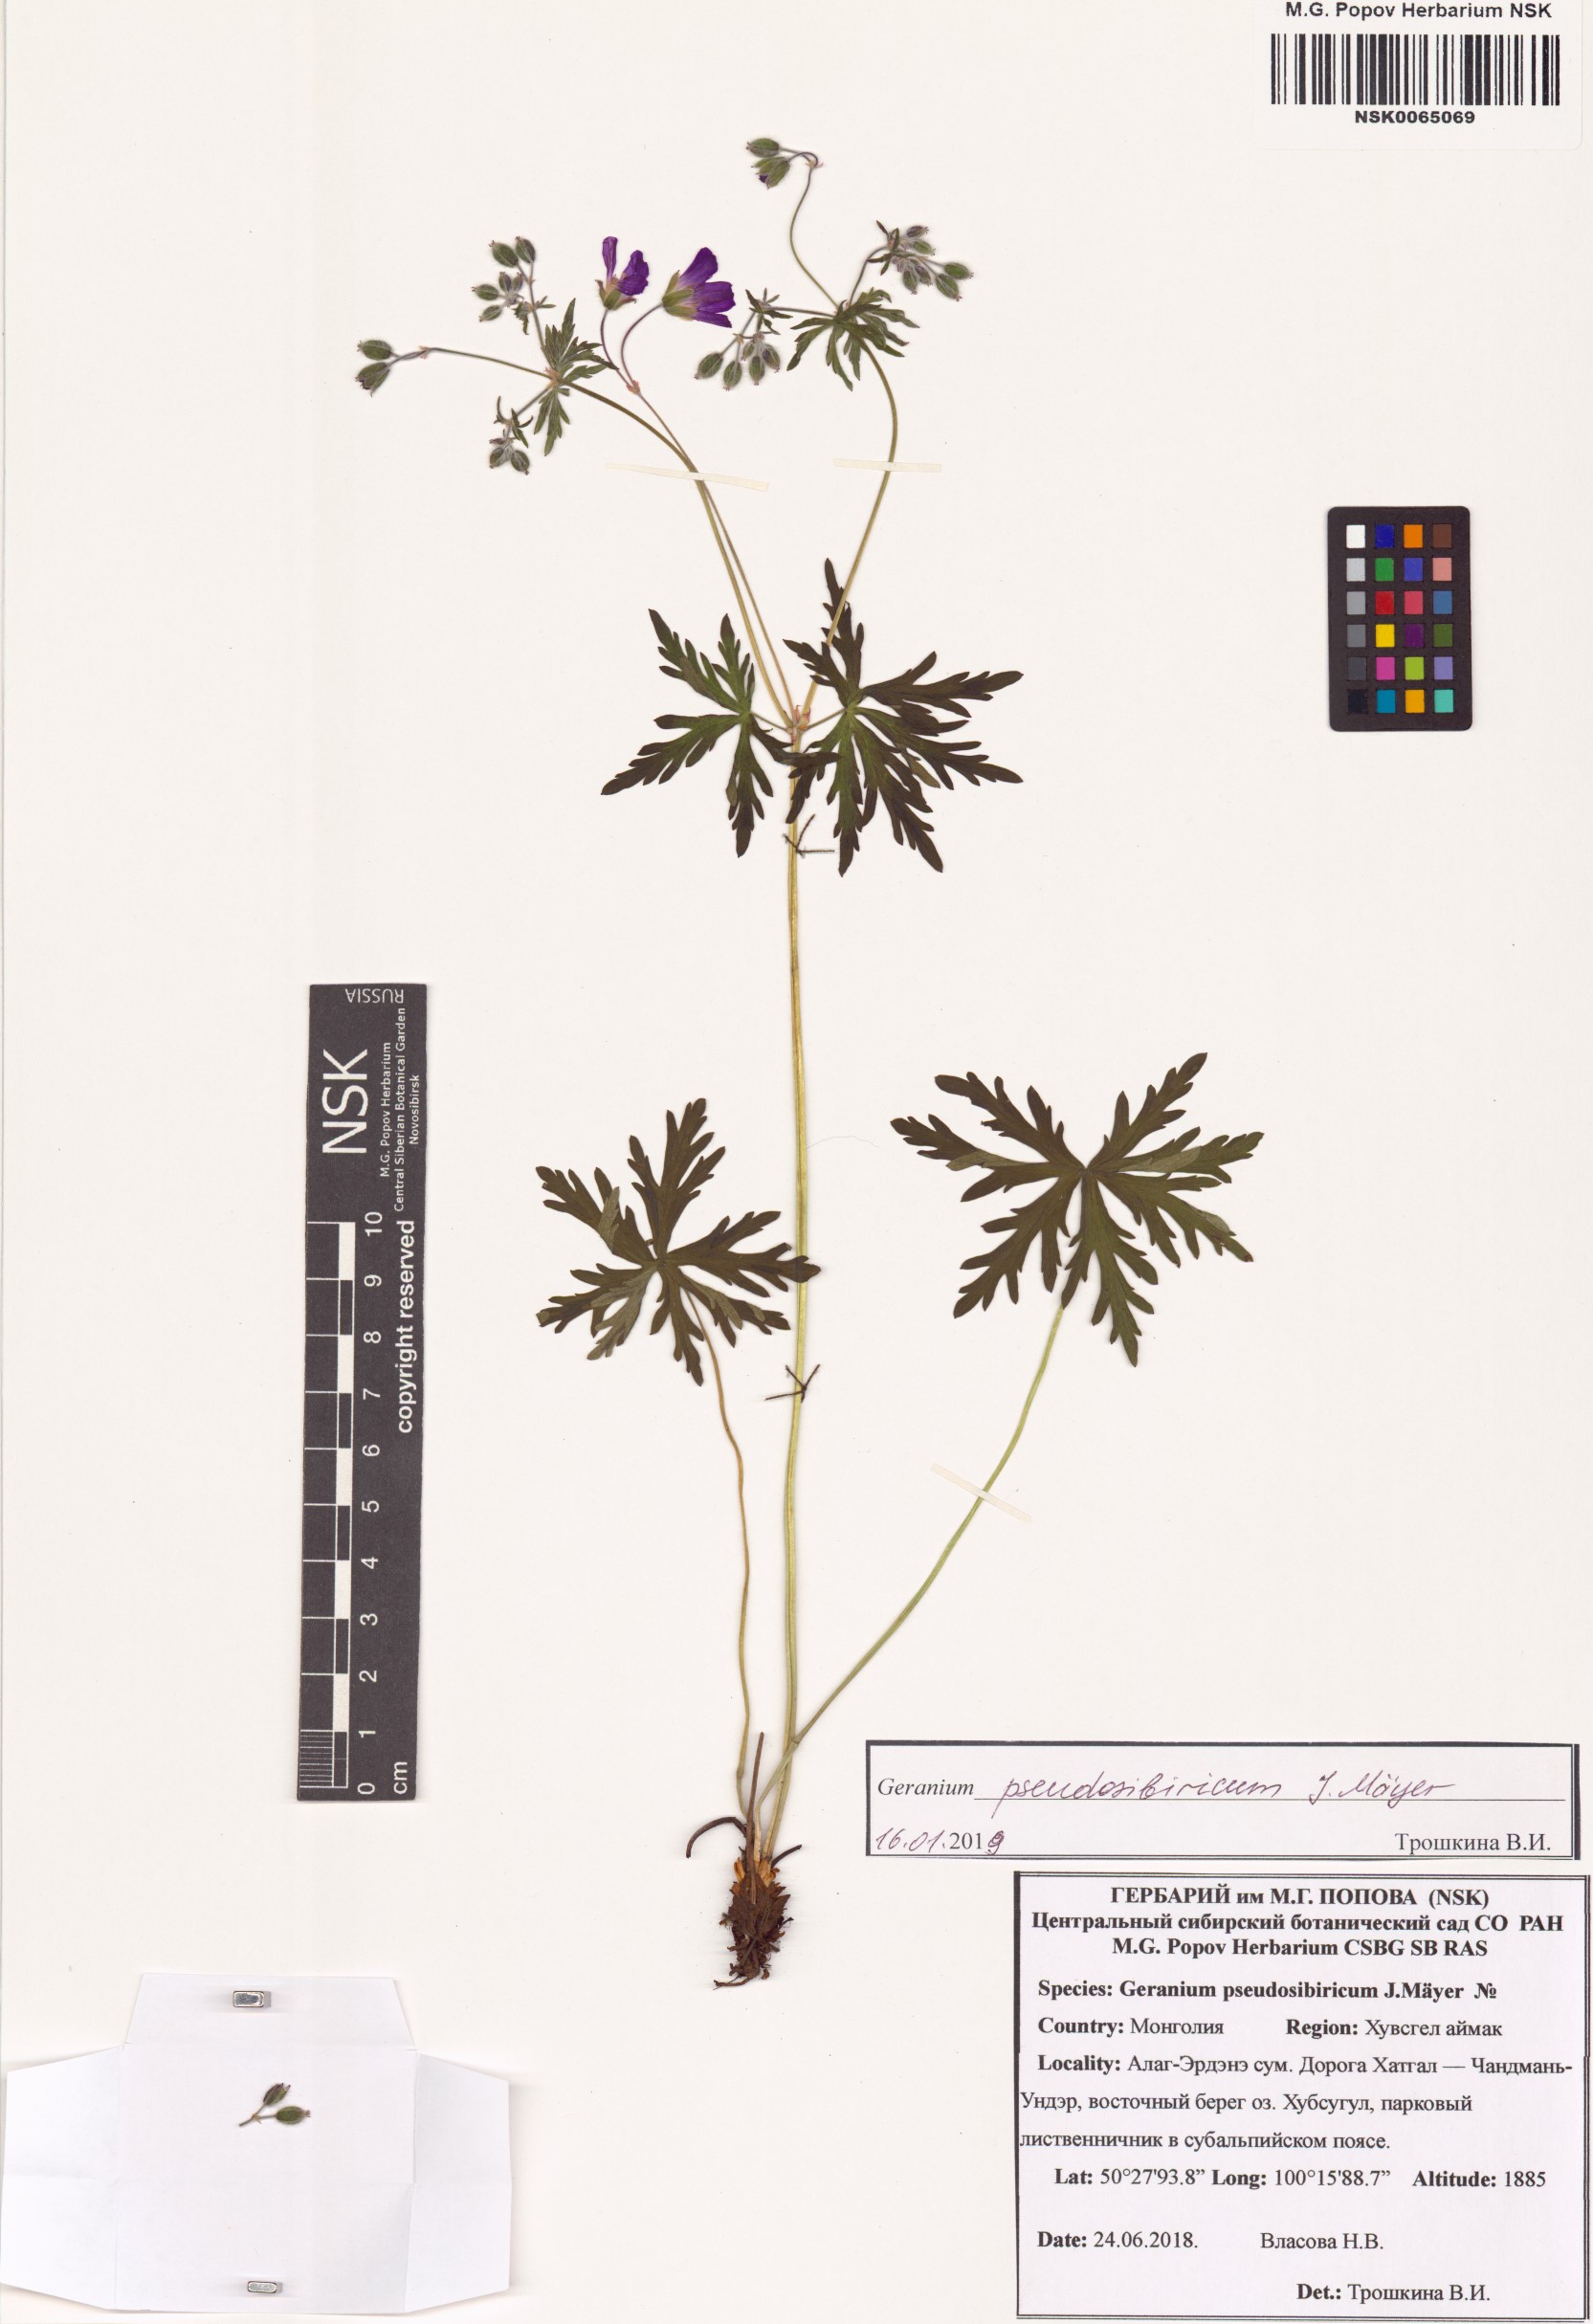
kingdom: Plantae
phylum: Tracheophyta
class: Magnoliopsida
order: Geraniales
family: Geraniaceae
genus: Geranium
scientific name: Geranium pseudosibiricum
